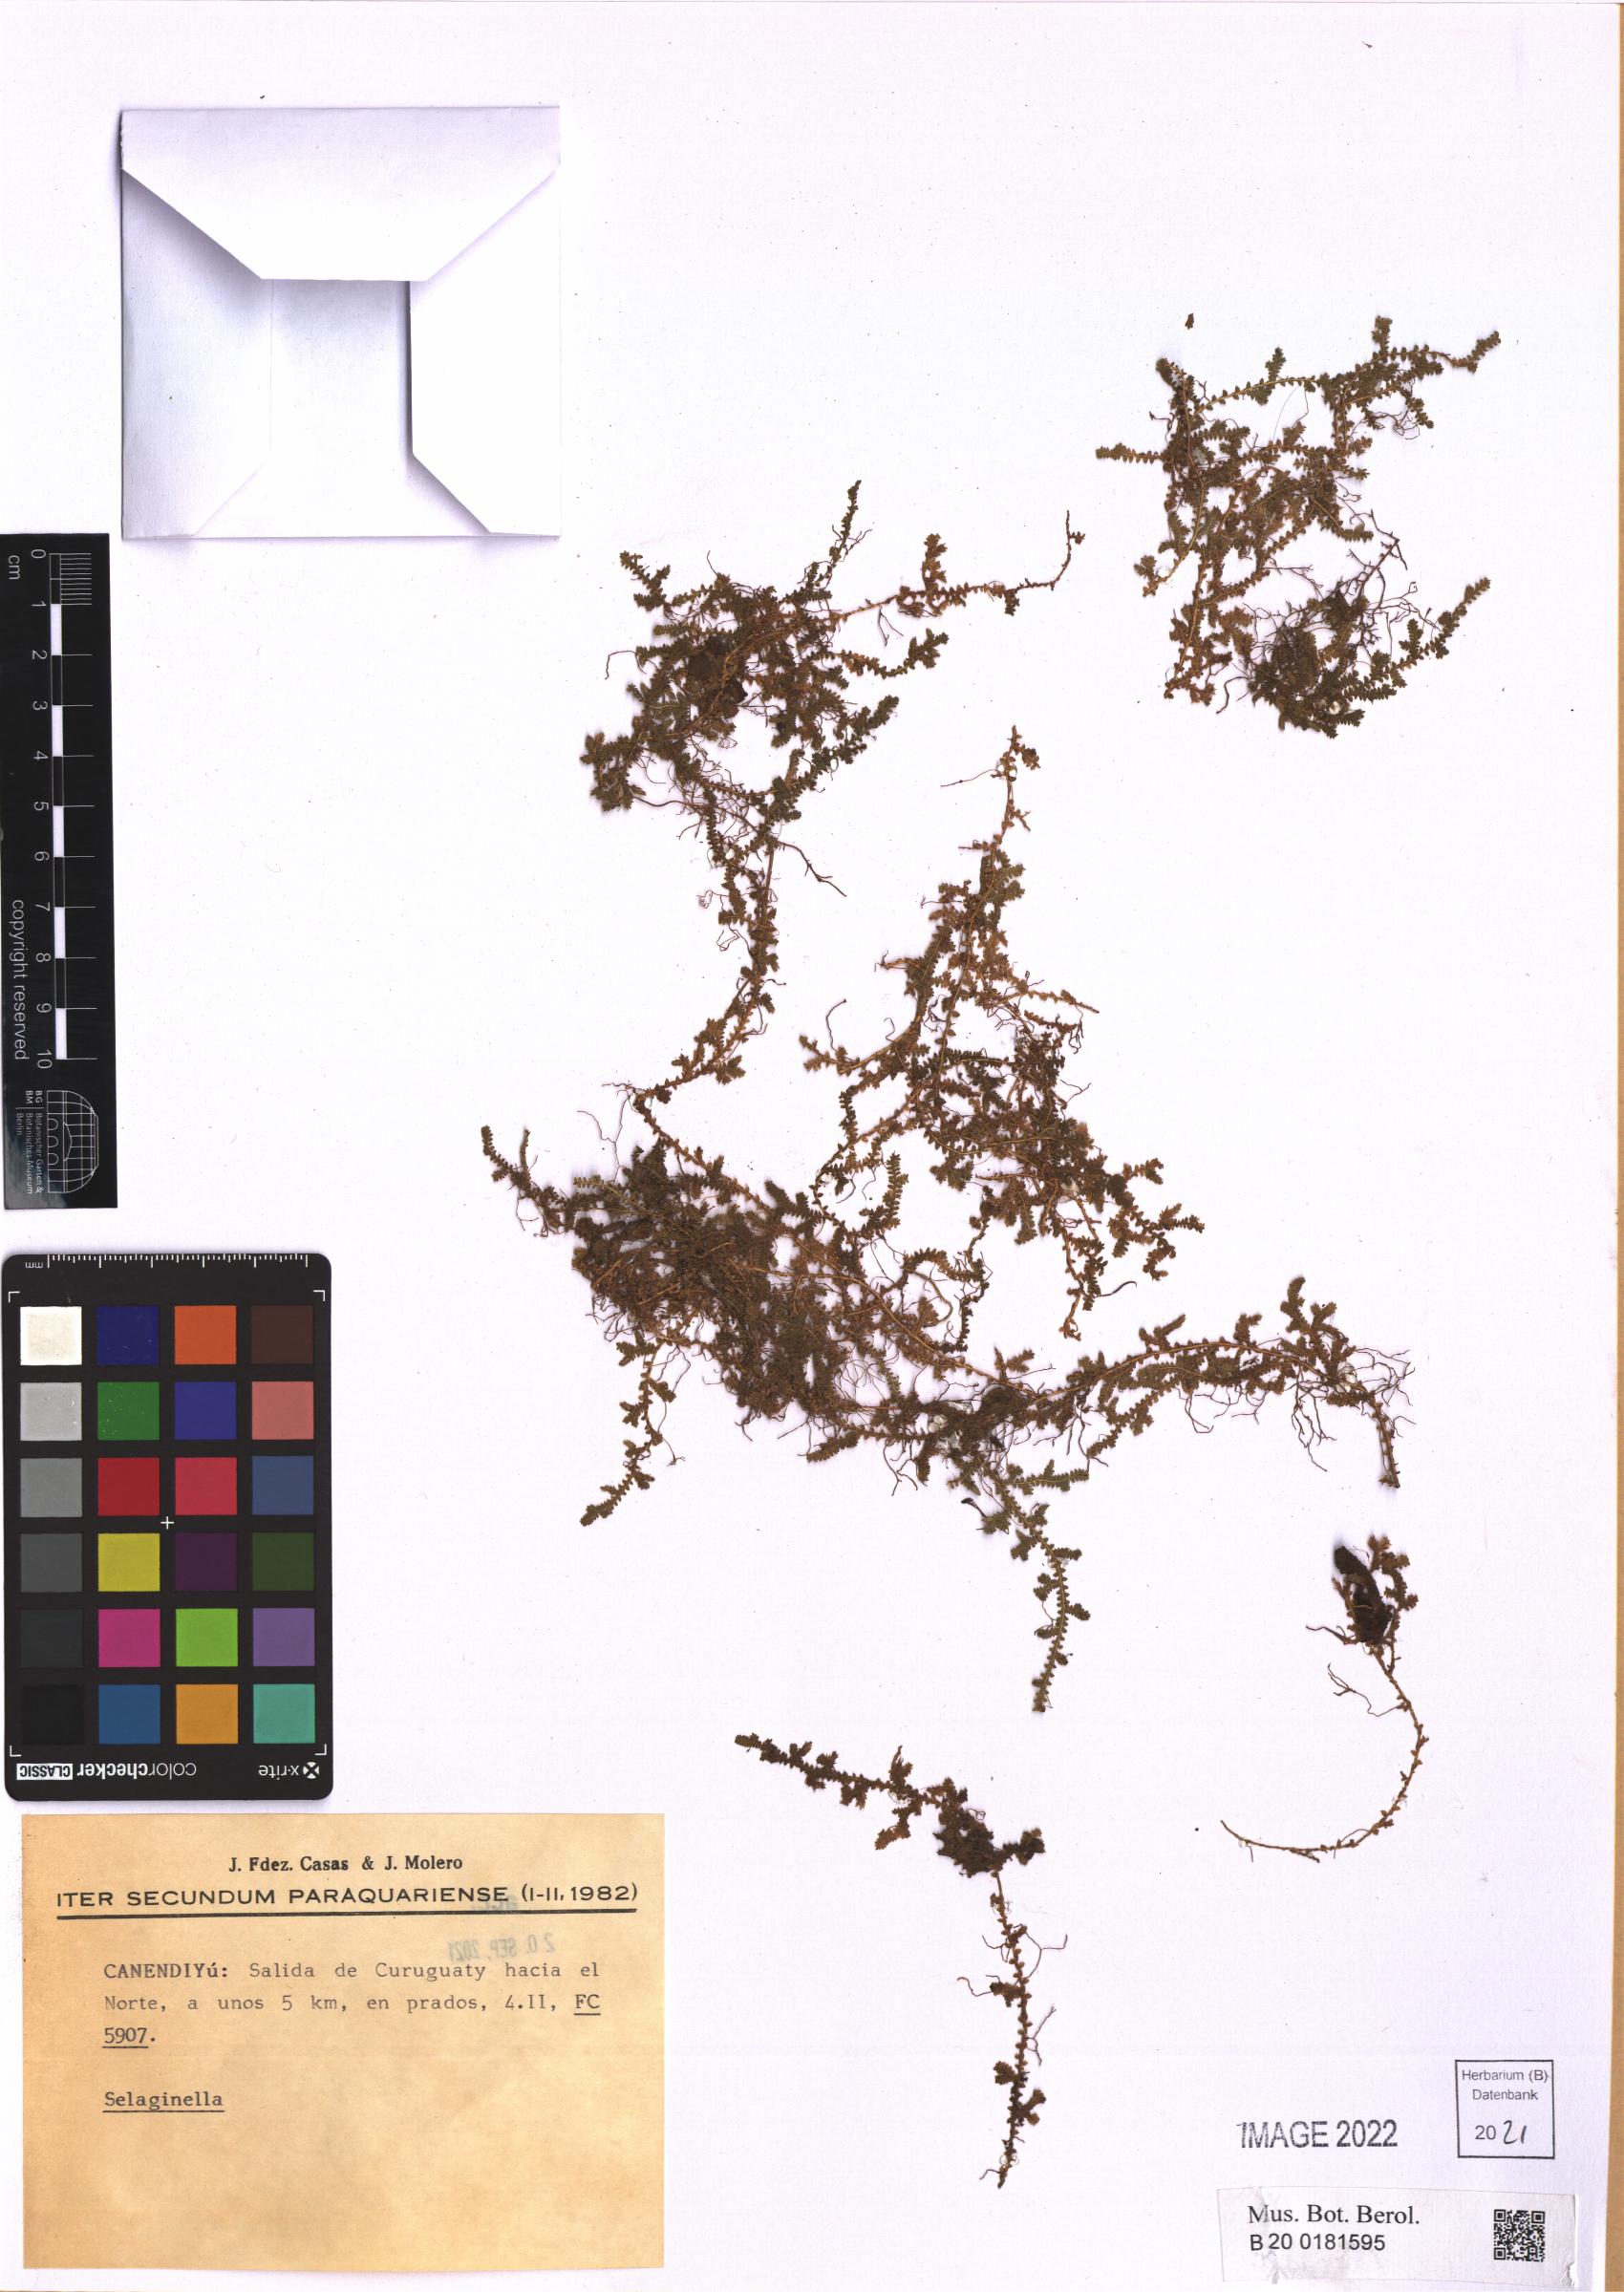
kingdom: Plantae
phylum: Tracheophyta
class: Lycopodiopsida
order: Selaginellales
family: Selaginellaceae
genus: Selaginella
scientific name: Selaginella
